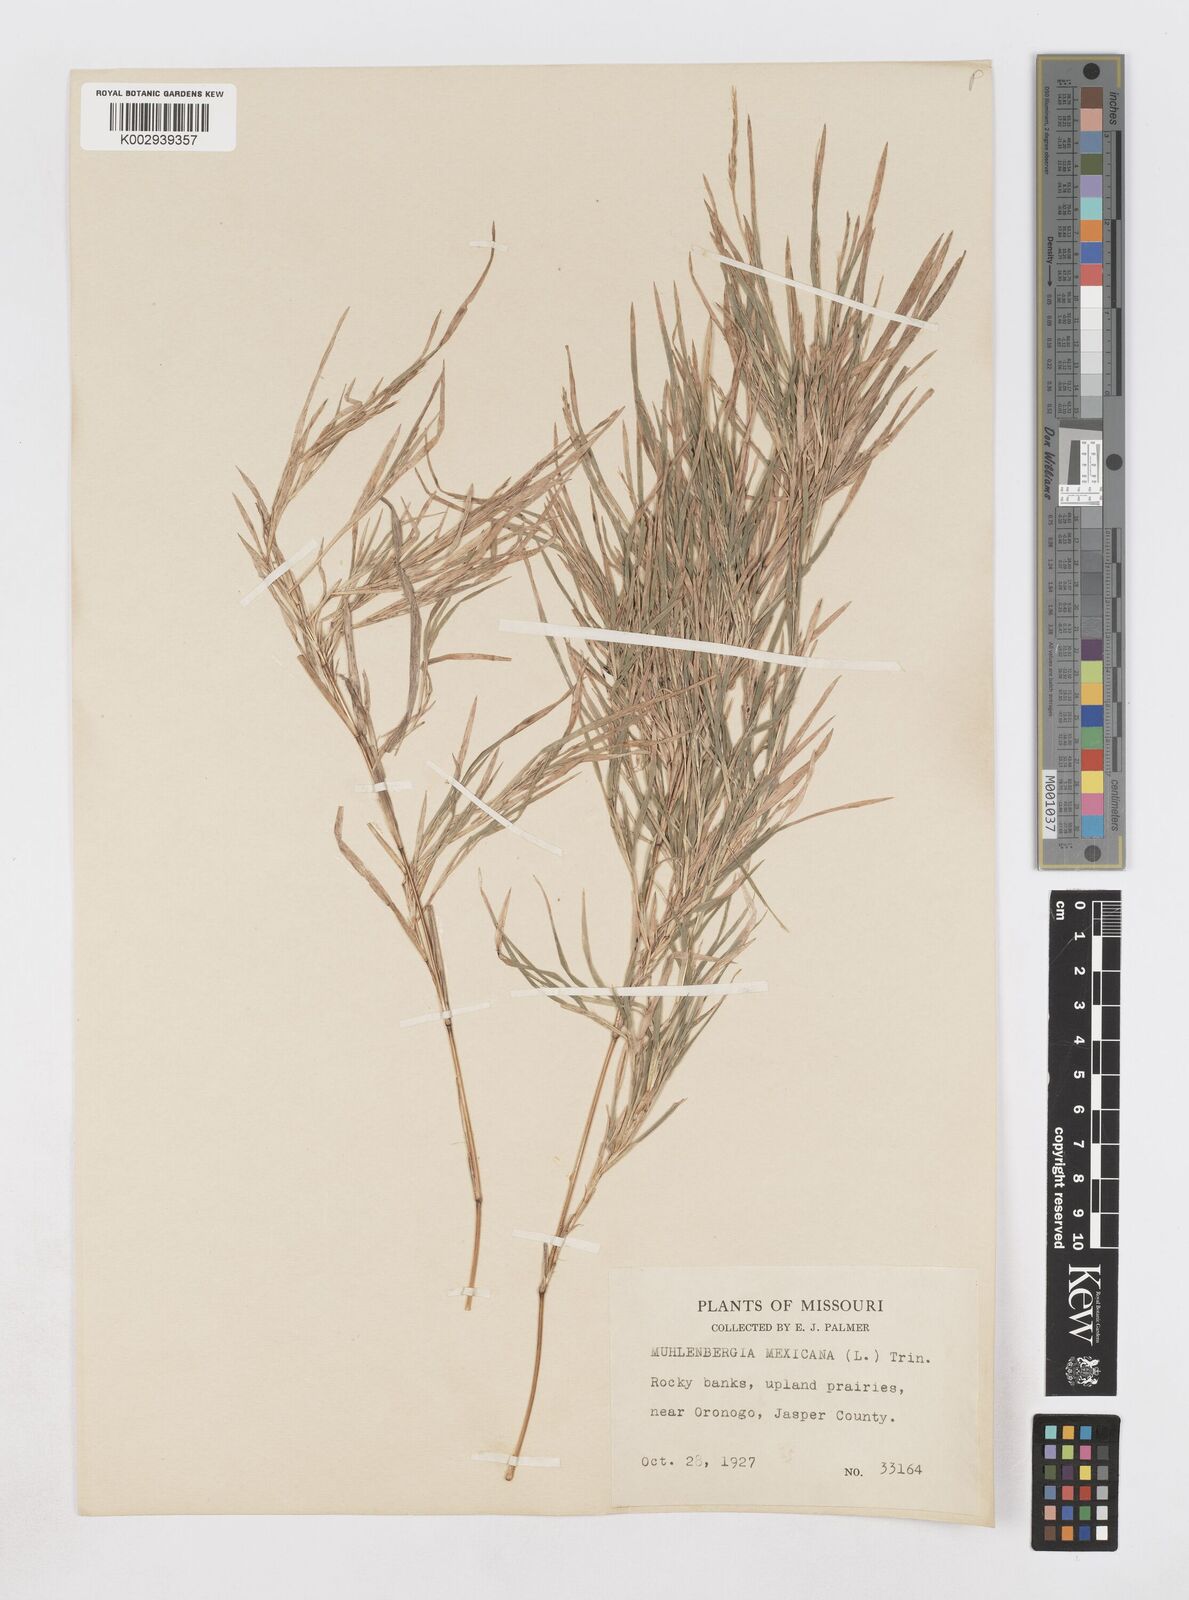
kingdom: Plantae
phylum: Tracheophyta
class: Liliopsida
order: Poales
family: Poaceae
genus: Muhlenbergia
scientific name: Muhlenbergia mexicana
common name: Mexican muhly
